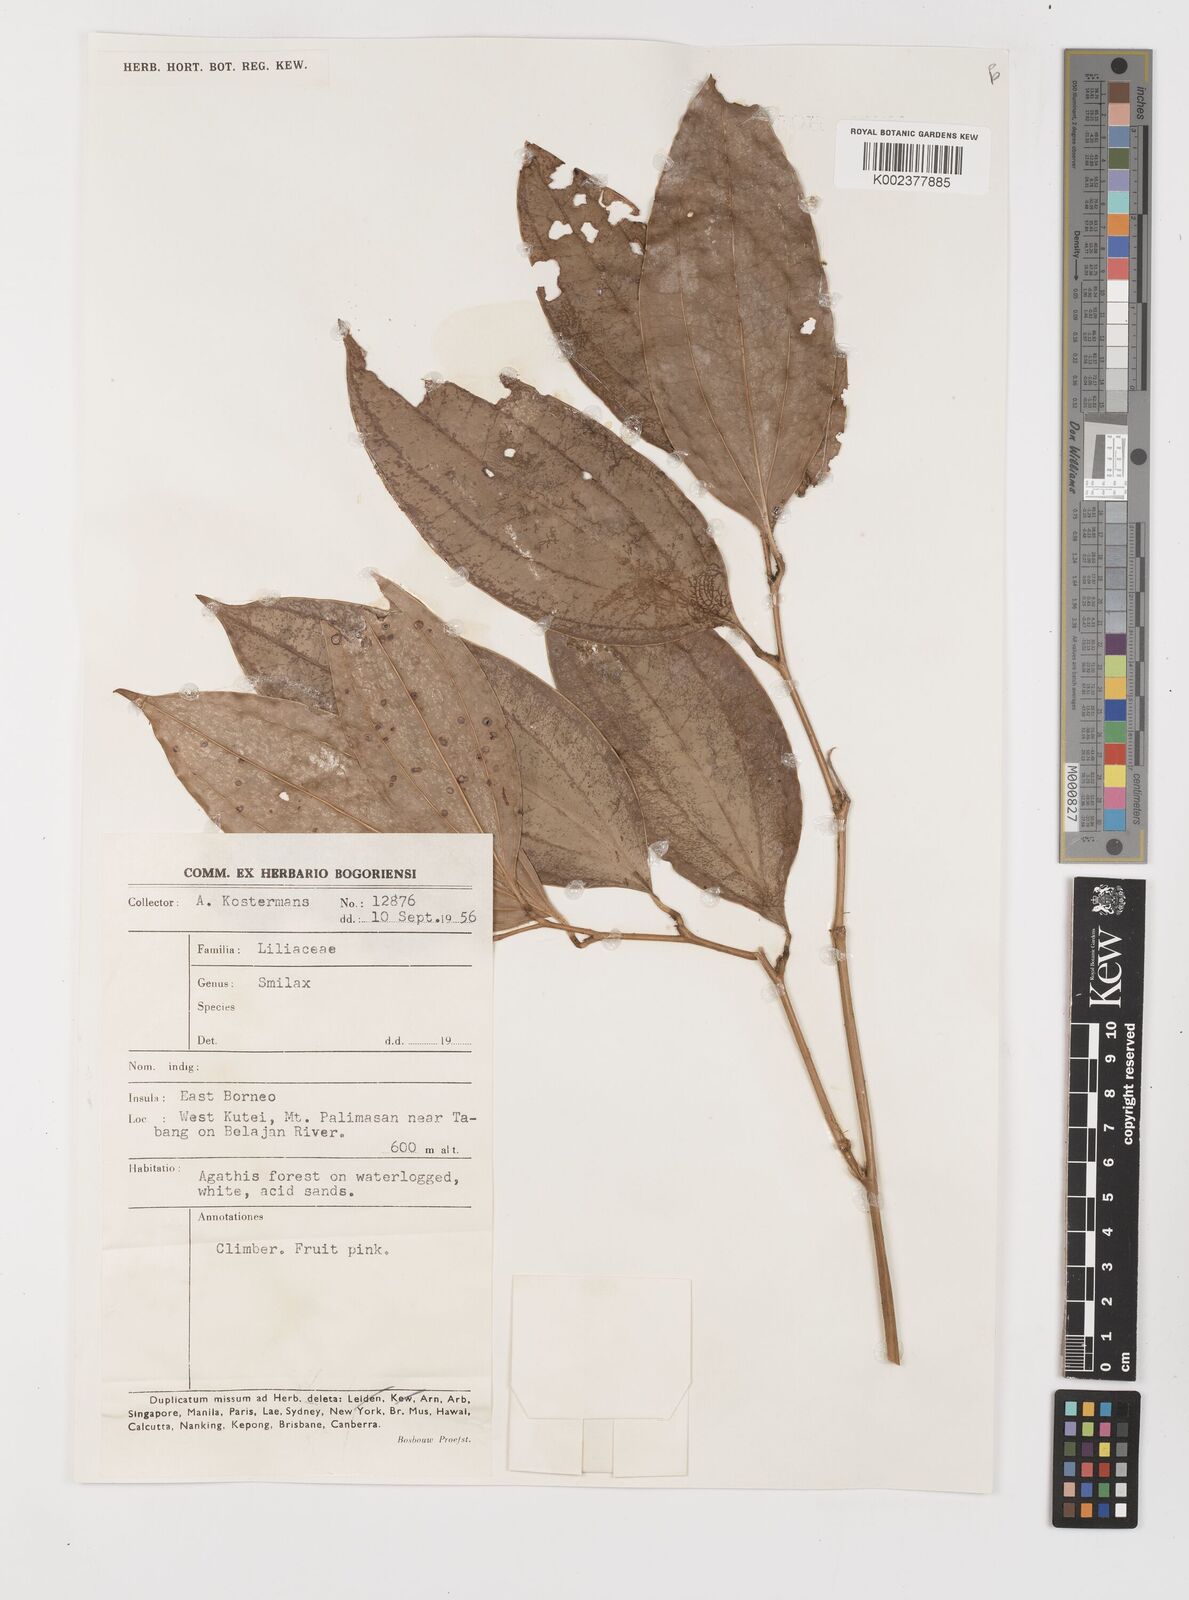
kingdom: Plantae
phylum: Tracheophyta
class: Liliopsida
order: Liliales
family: Smilacaceae
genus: Smilax
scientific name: Smilax
